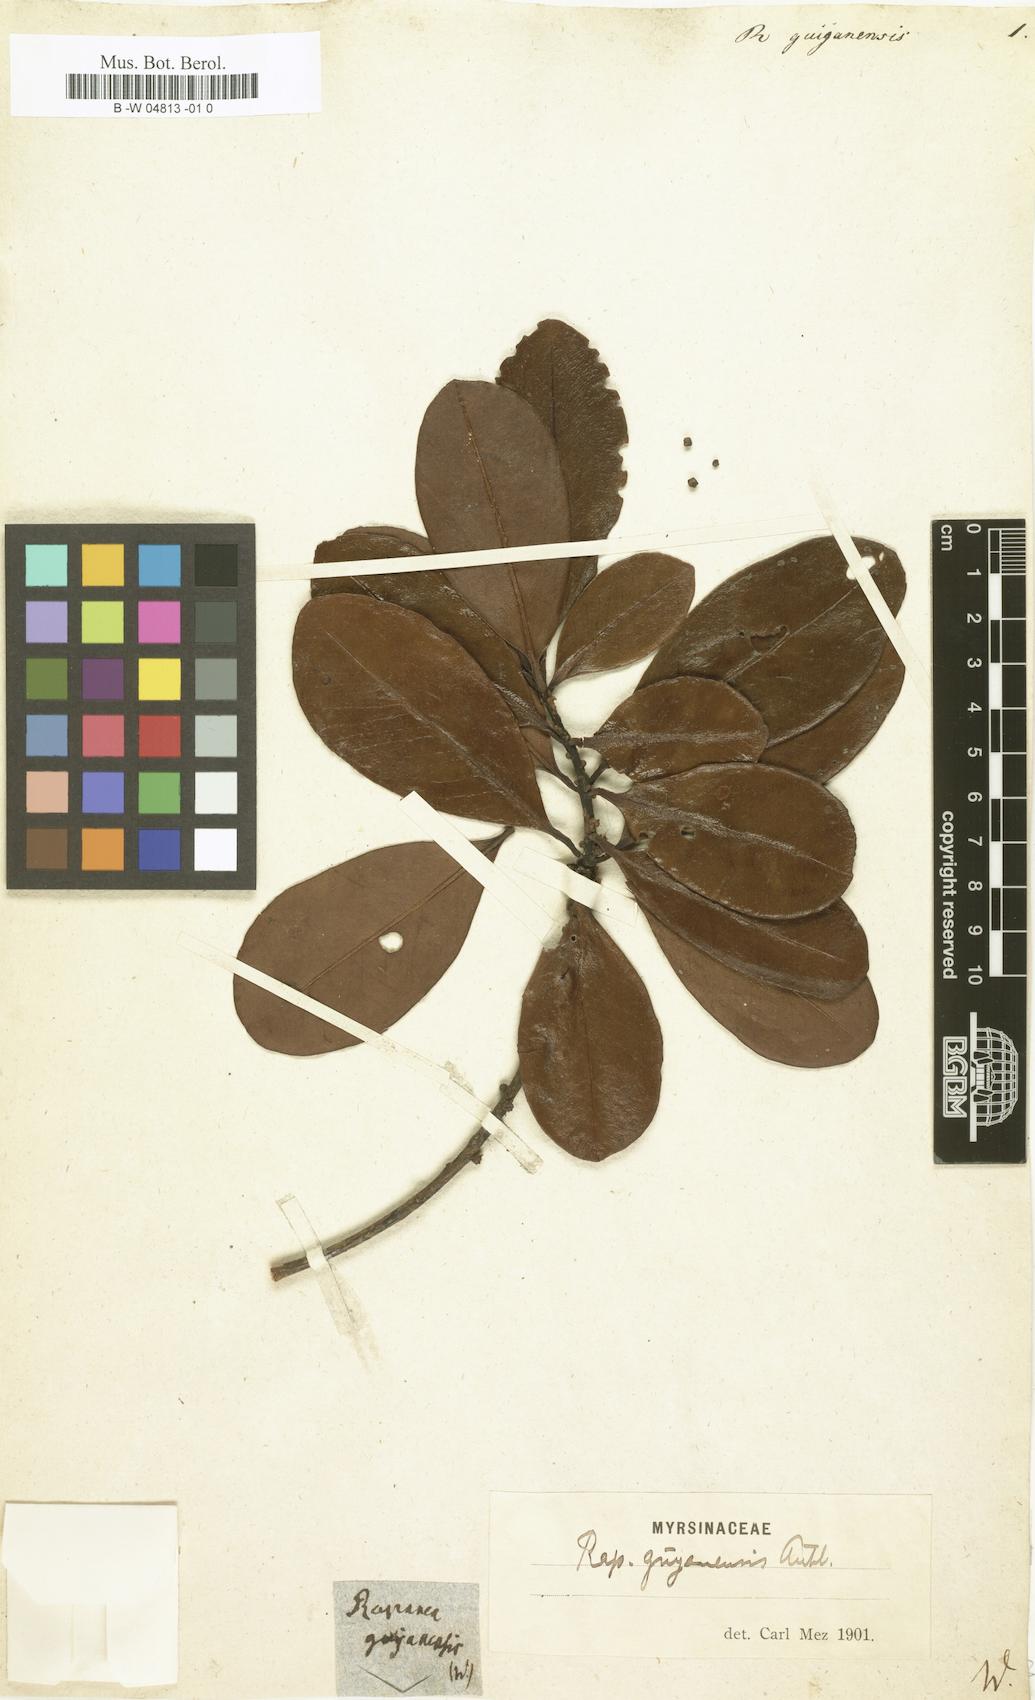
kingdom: Plantae
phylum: Tracheophyta
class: Magnoliopsida
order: Ericales
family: Primulaceae
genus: Myrsine
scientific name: Myrsine guianensis
